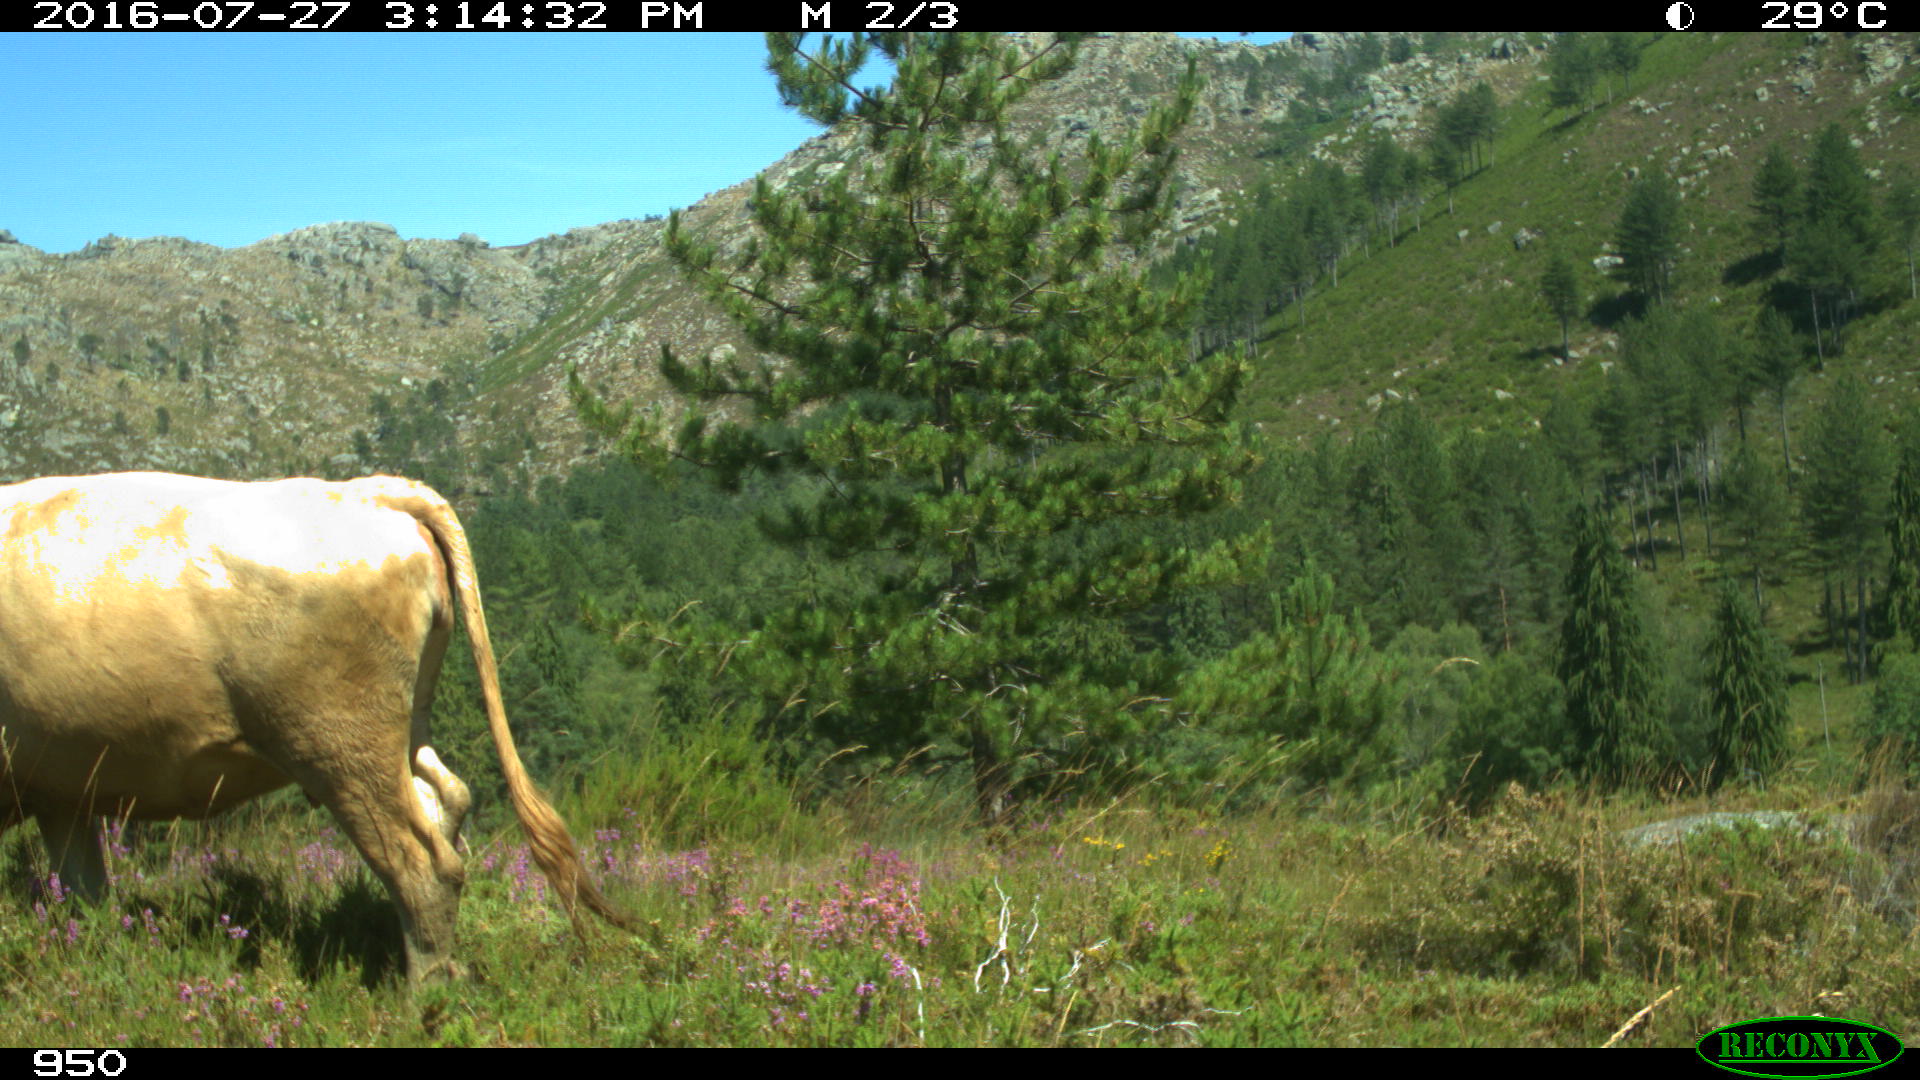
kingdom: Animalia
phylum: Chordata
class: Mammalia
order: Artiodactyla
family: Bovidae
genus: Bos
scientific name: Bos taurus
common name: Domesticated cattle
